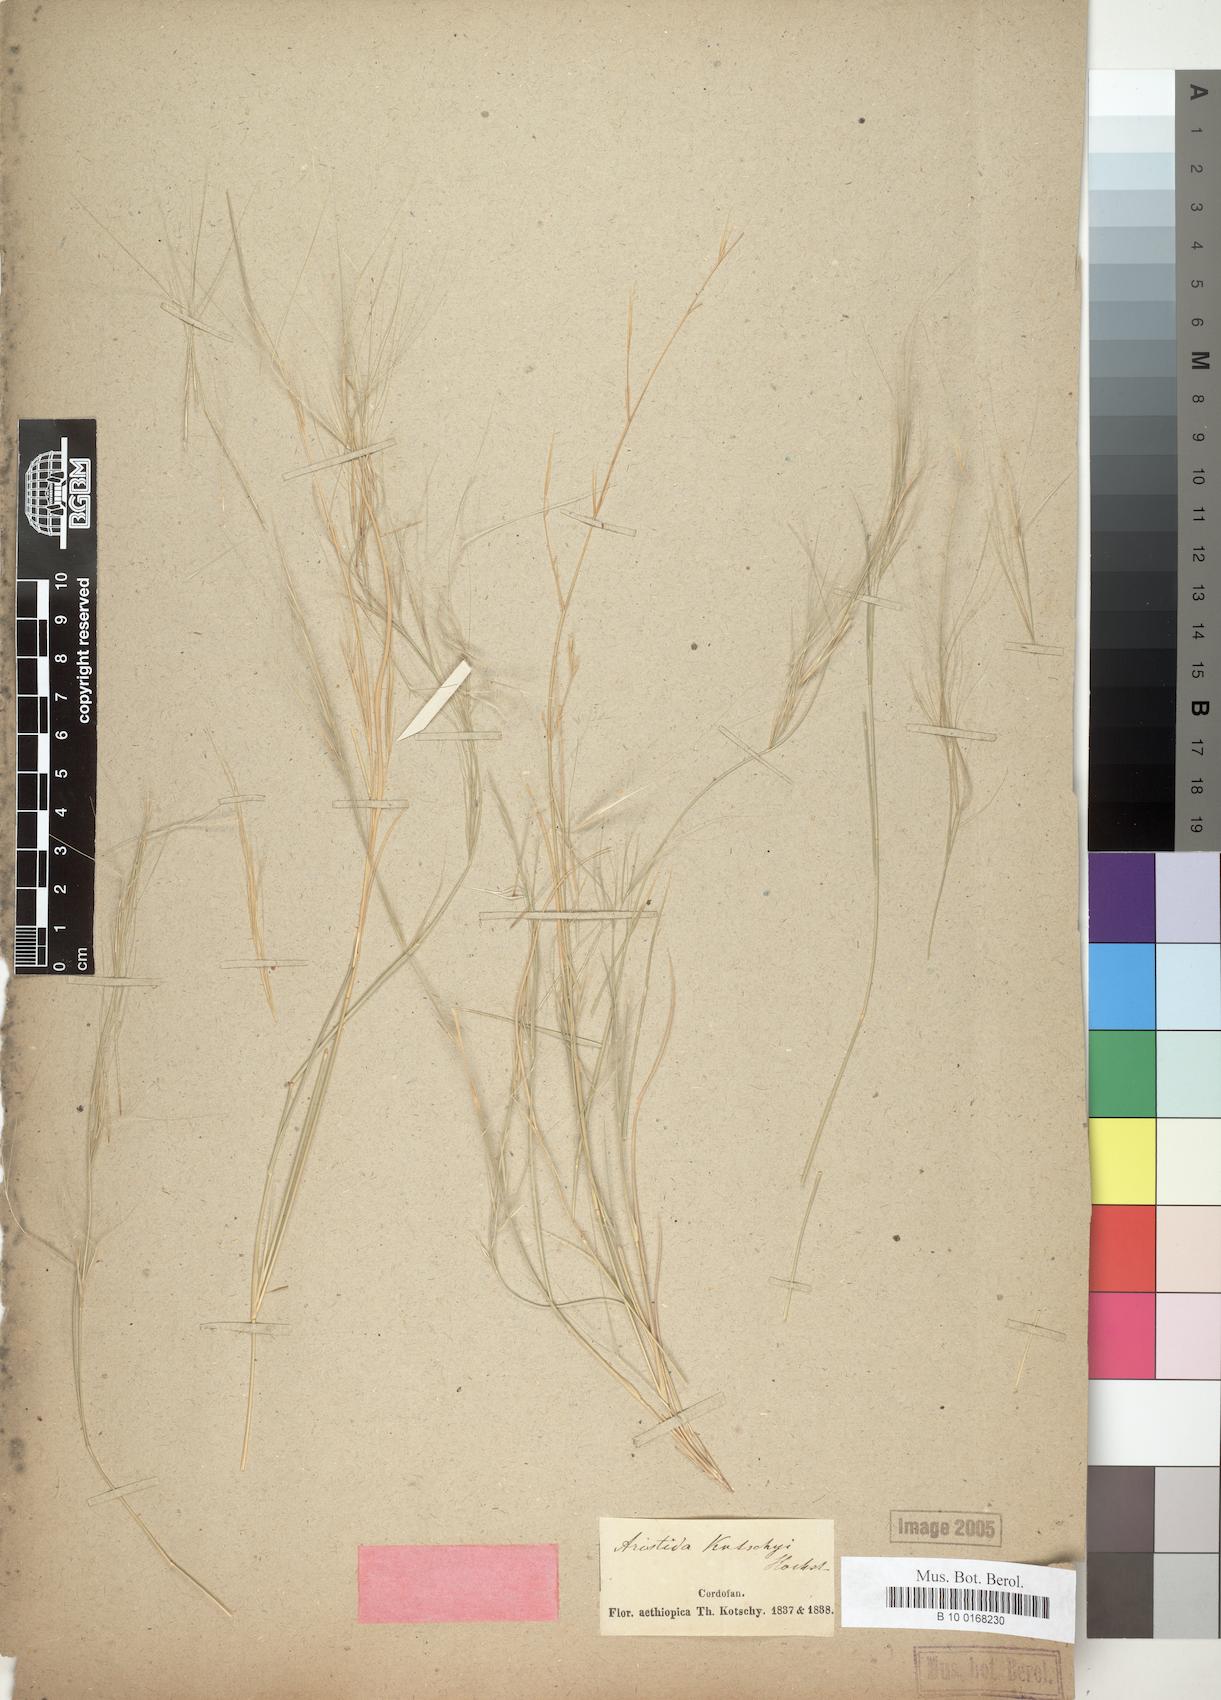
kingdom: Plantae
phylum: Tracheophyta
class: Liliopsida
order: Poales
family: Poaceae
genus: Aristida
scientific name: Aristida funiculata
